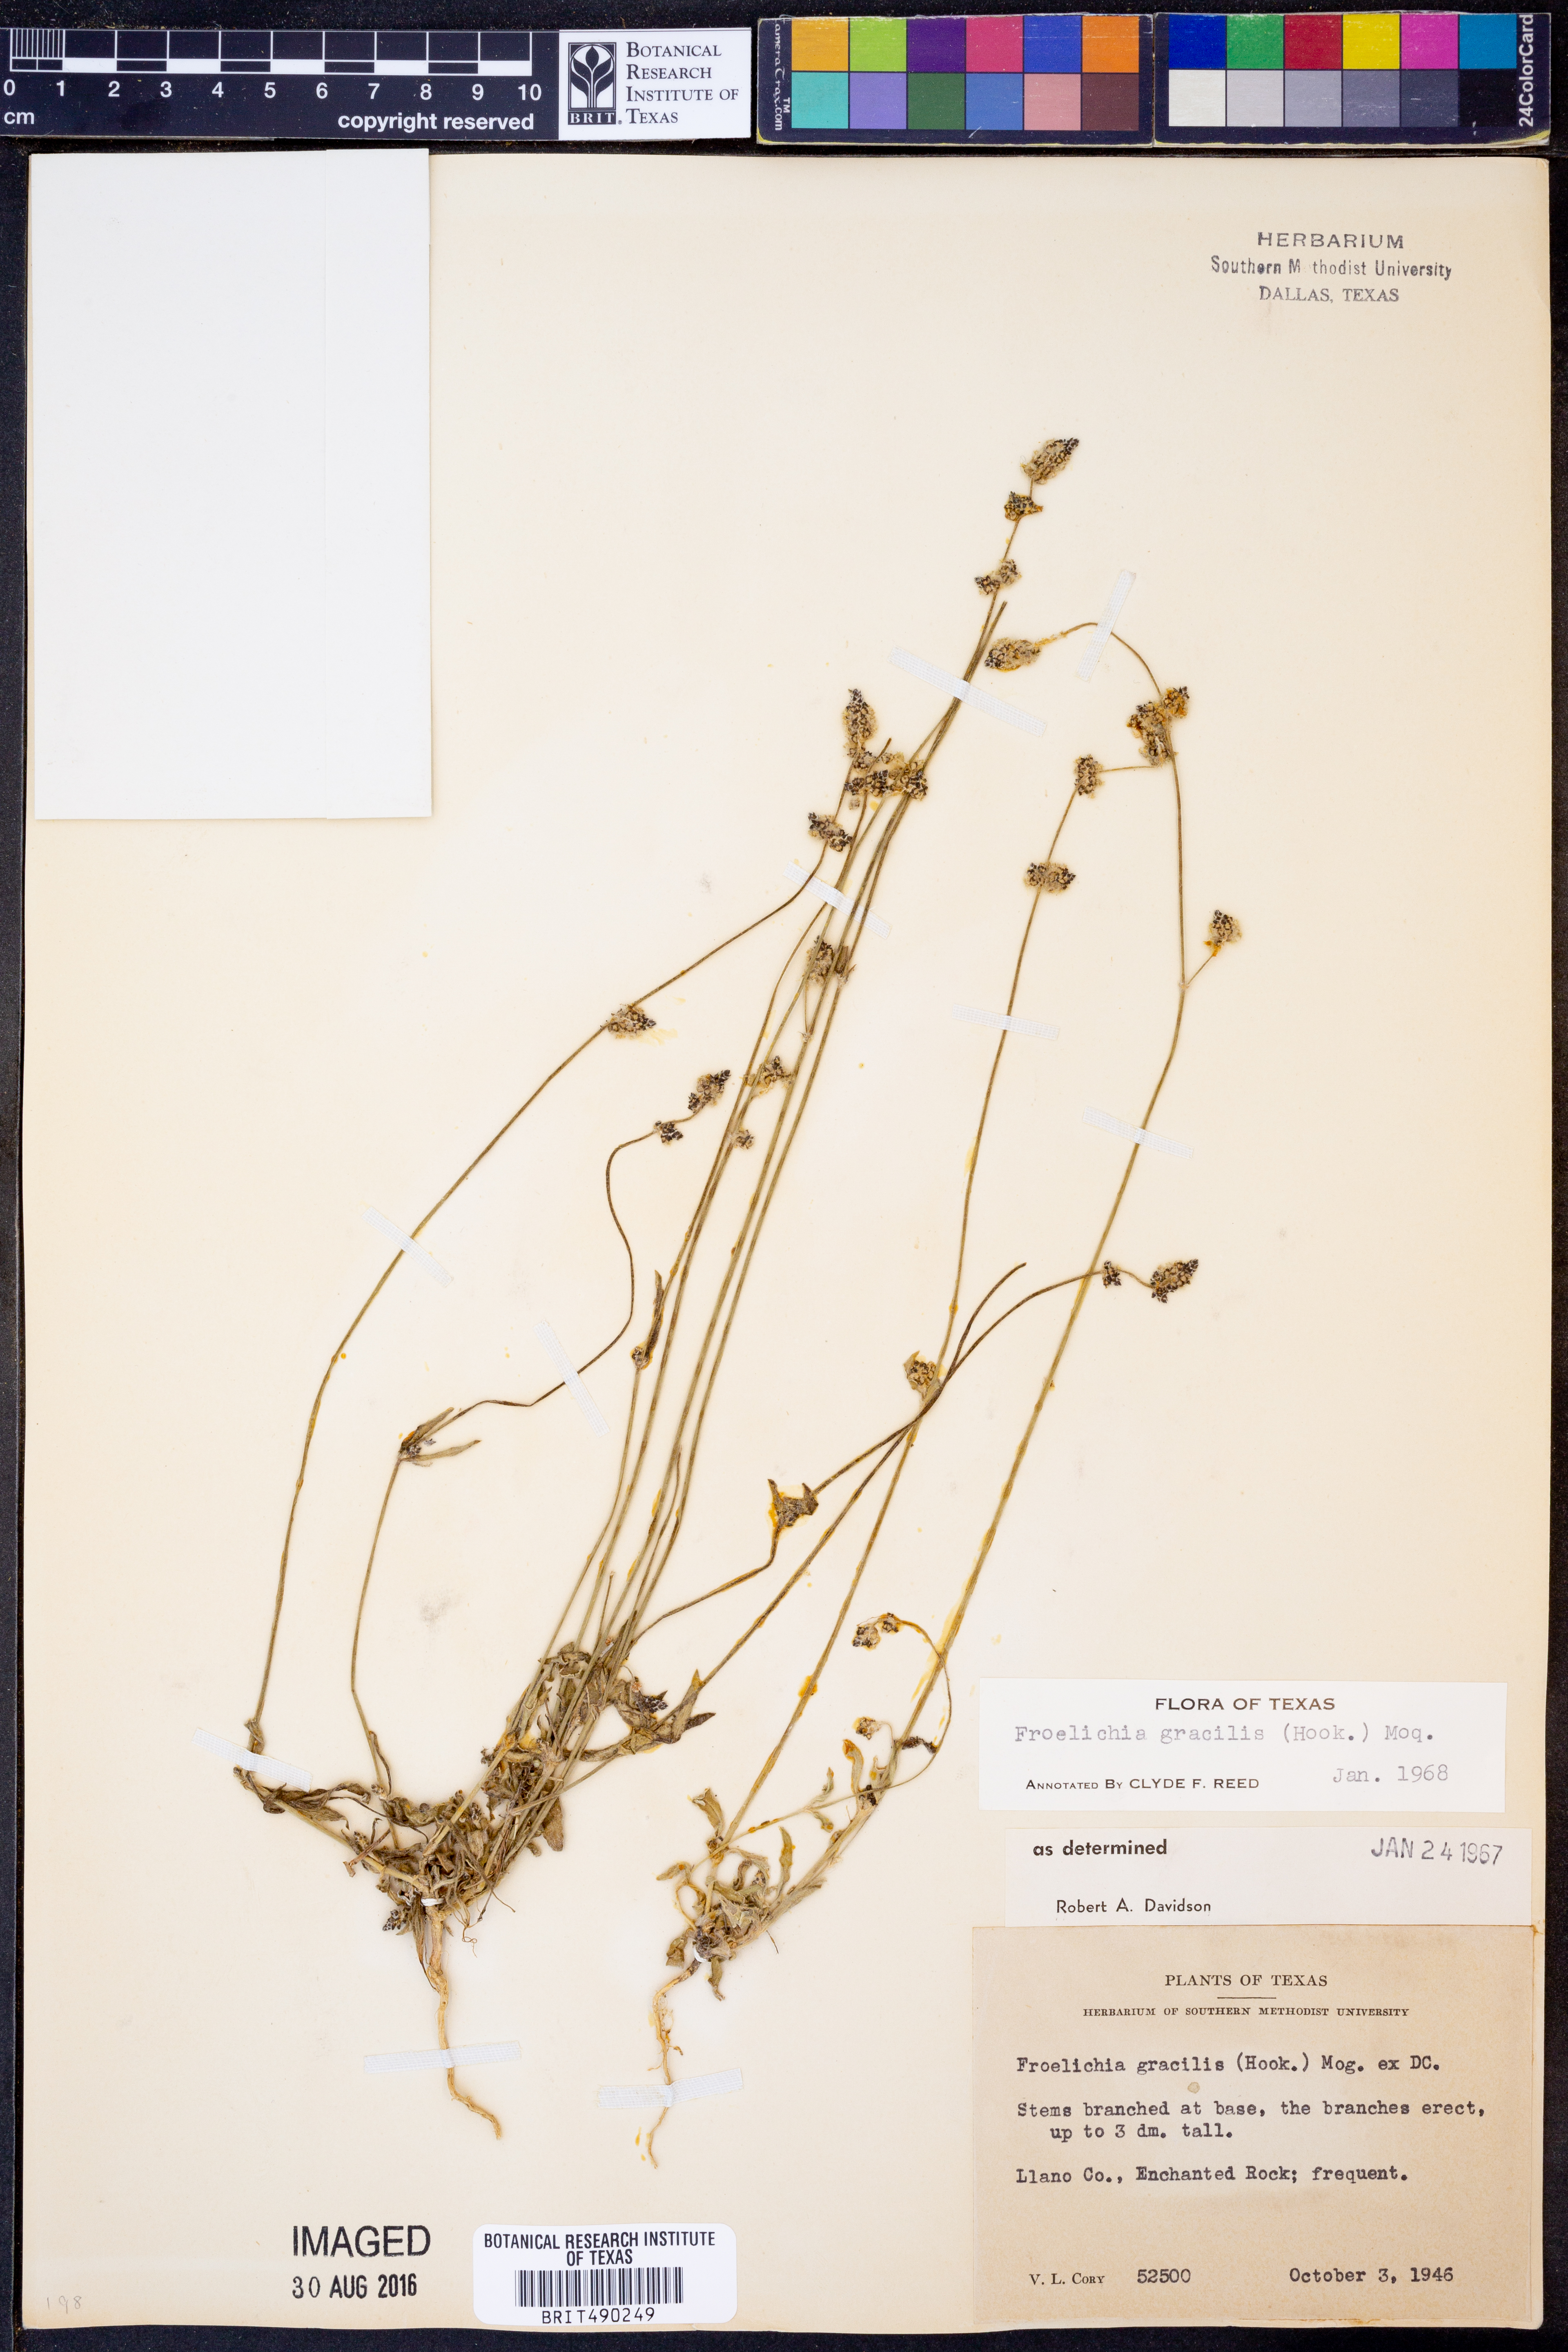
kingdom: Plantae
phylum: Tracheophyta
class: Magnoliopsida
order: Caryophyllales
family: Amaranthaceae
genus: Froelichia
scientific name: Froelichia gracilis
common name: Slender cottonweed
